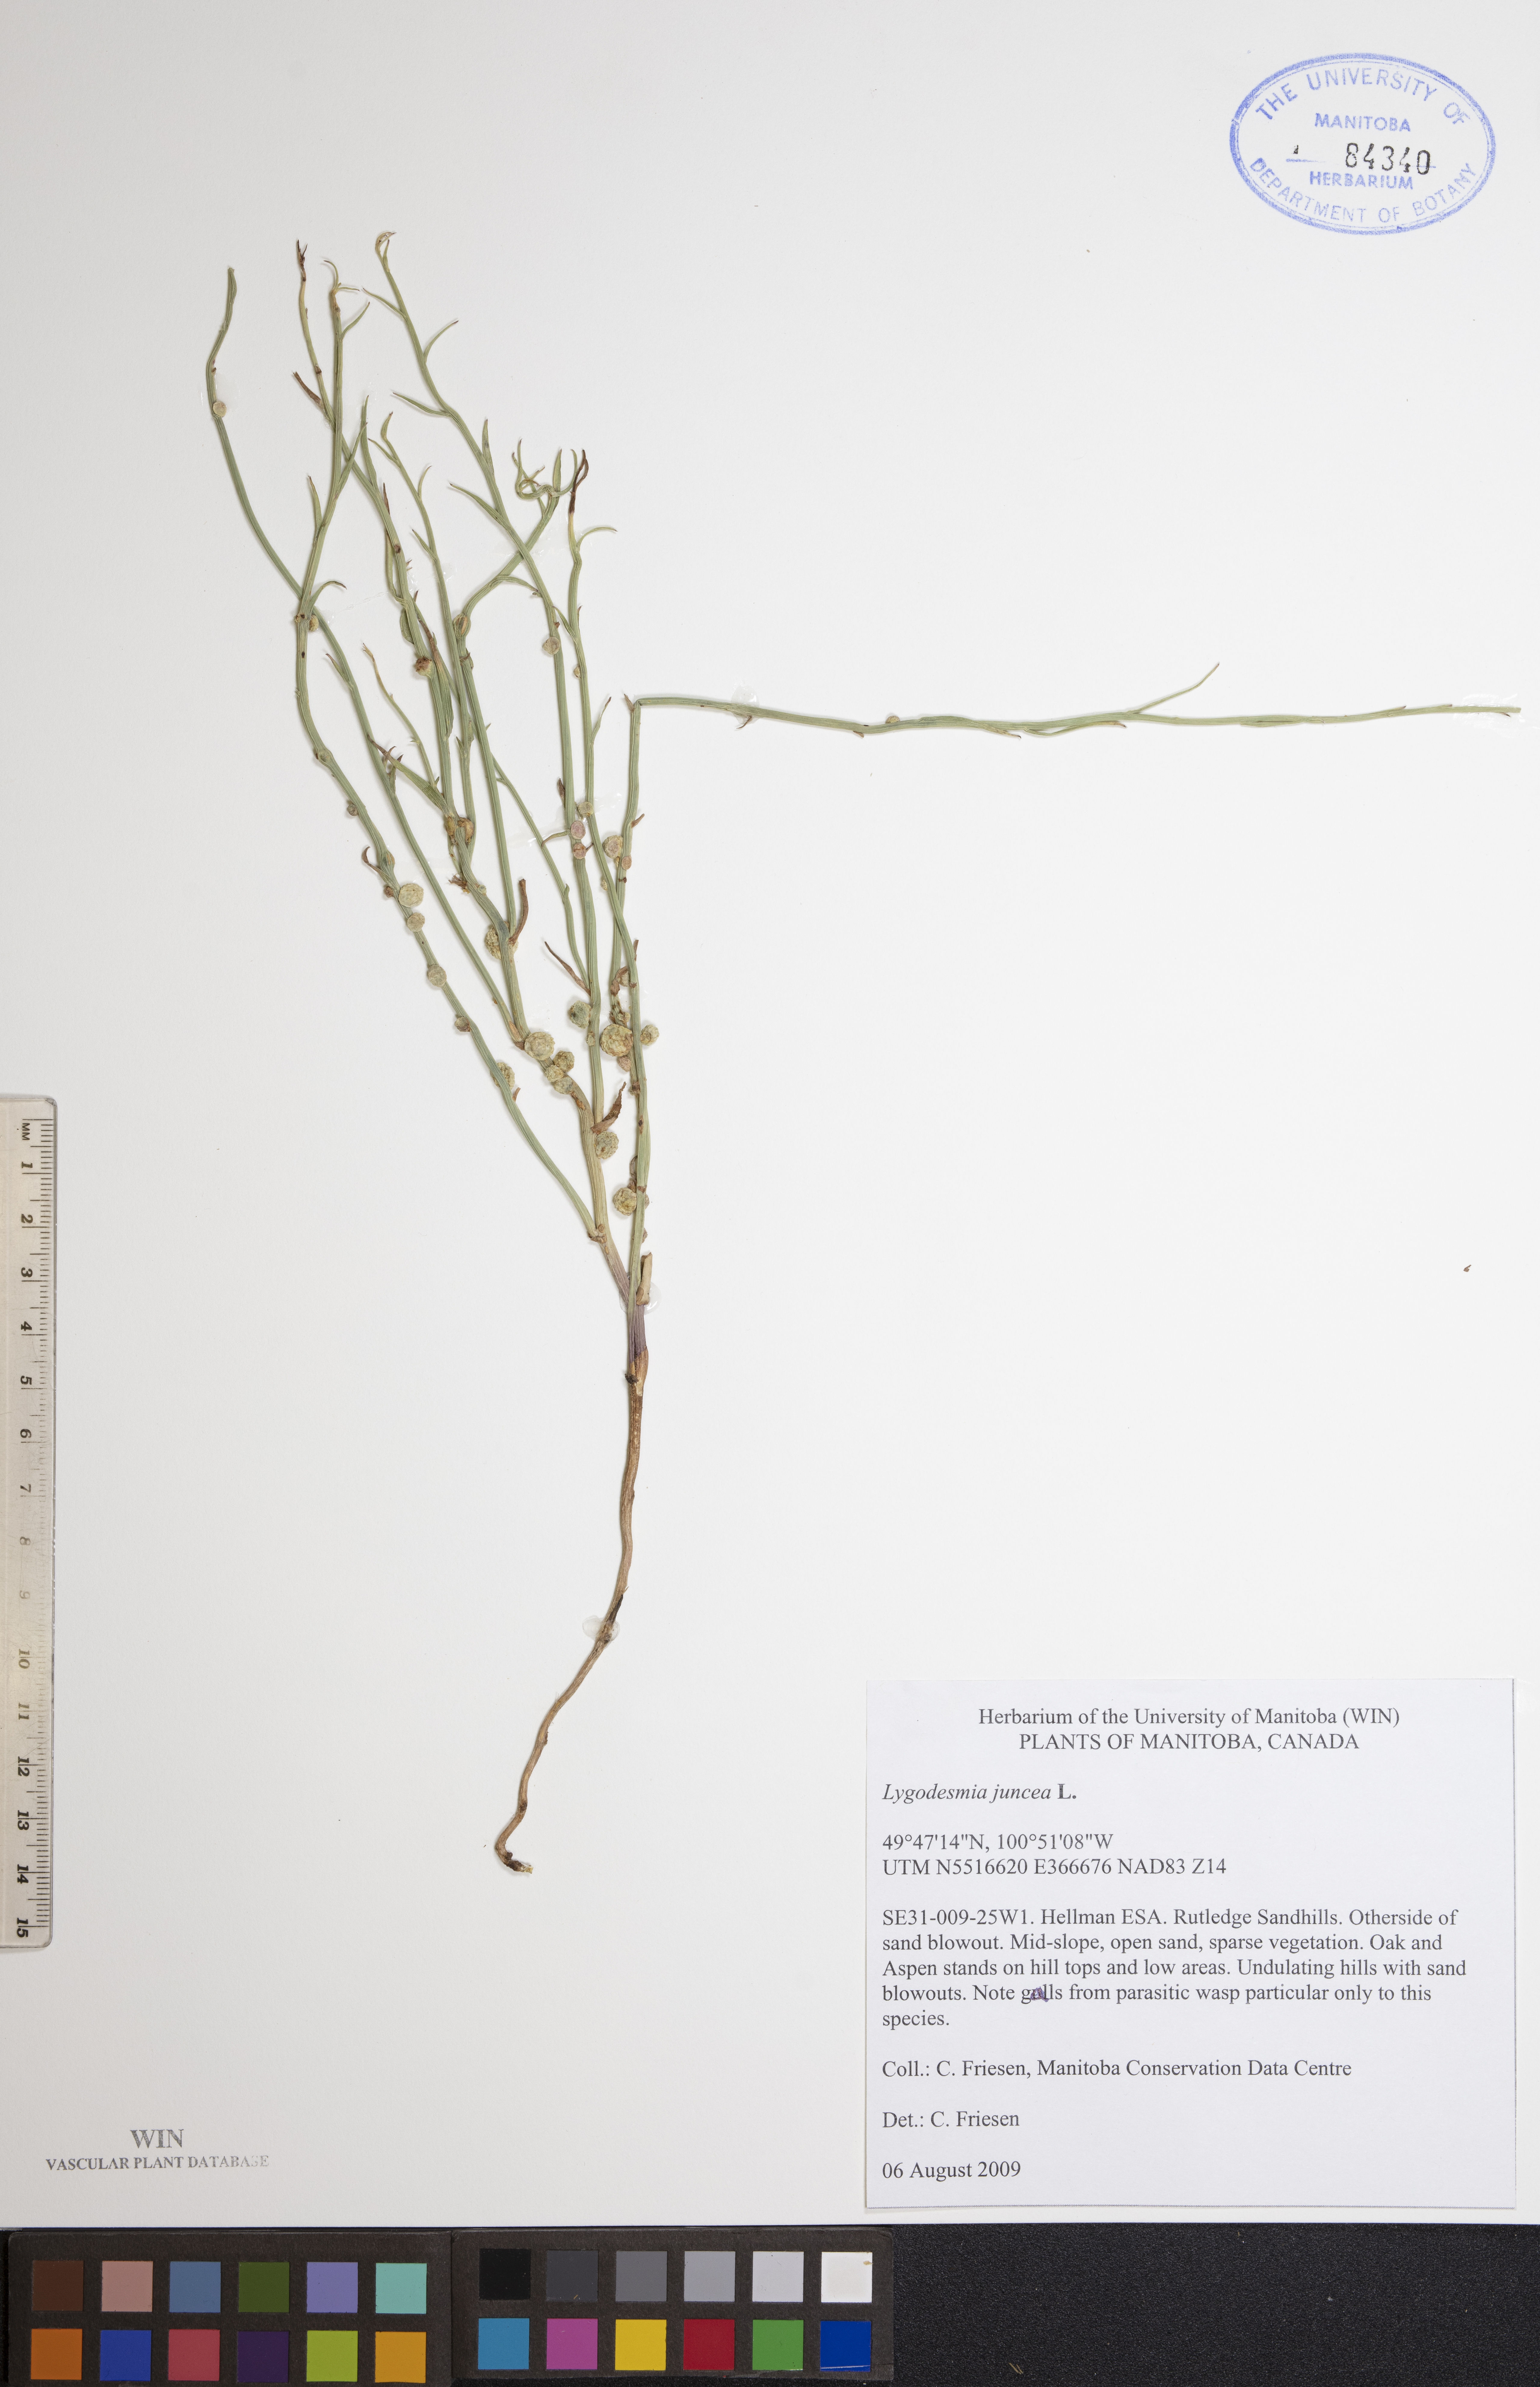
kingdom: Plantae
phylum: Tracheophyta
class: Magnoliopsida
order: Asterales
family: Asteraceae
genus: Lygodesmia
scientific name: Lygodesmia juncea
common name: Common skeletonweed
